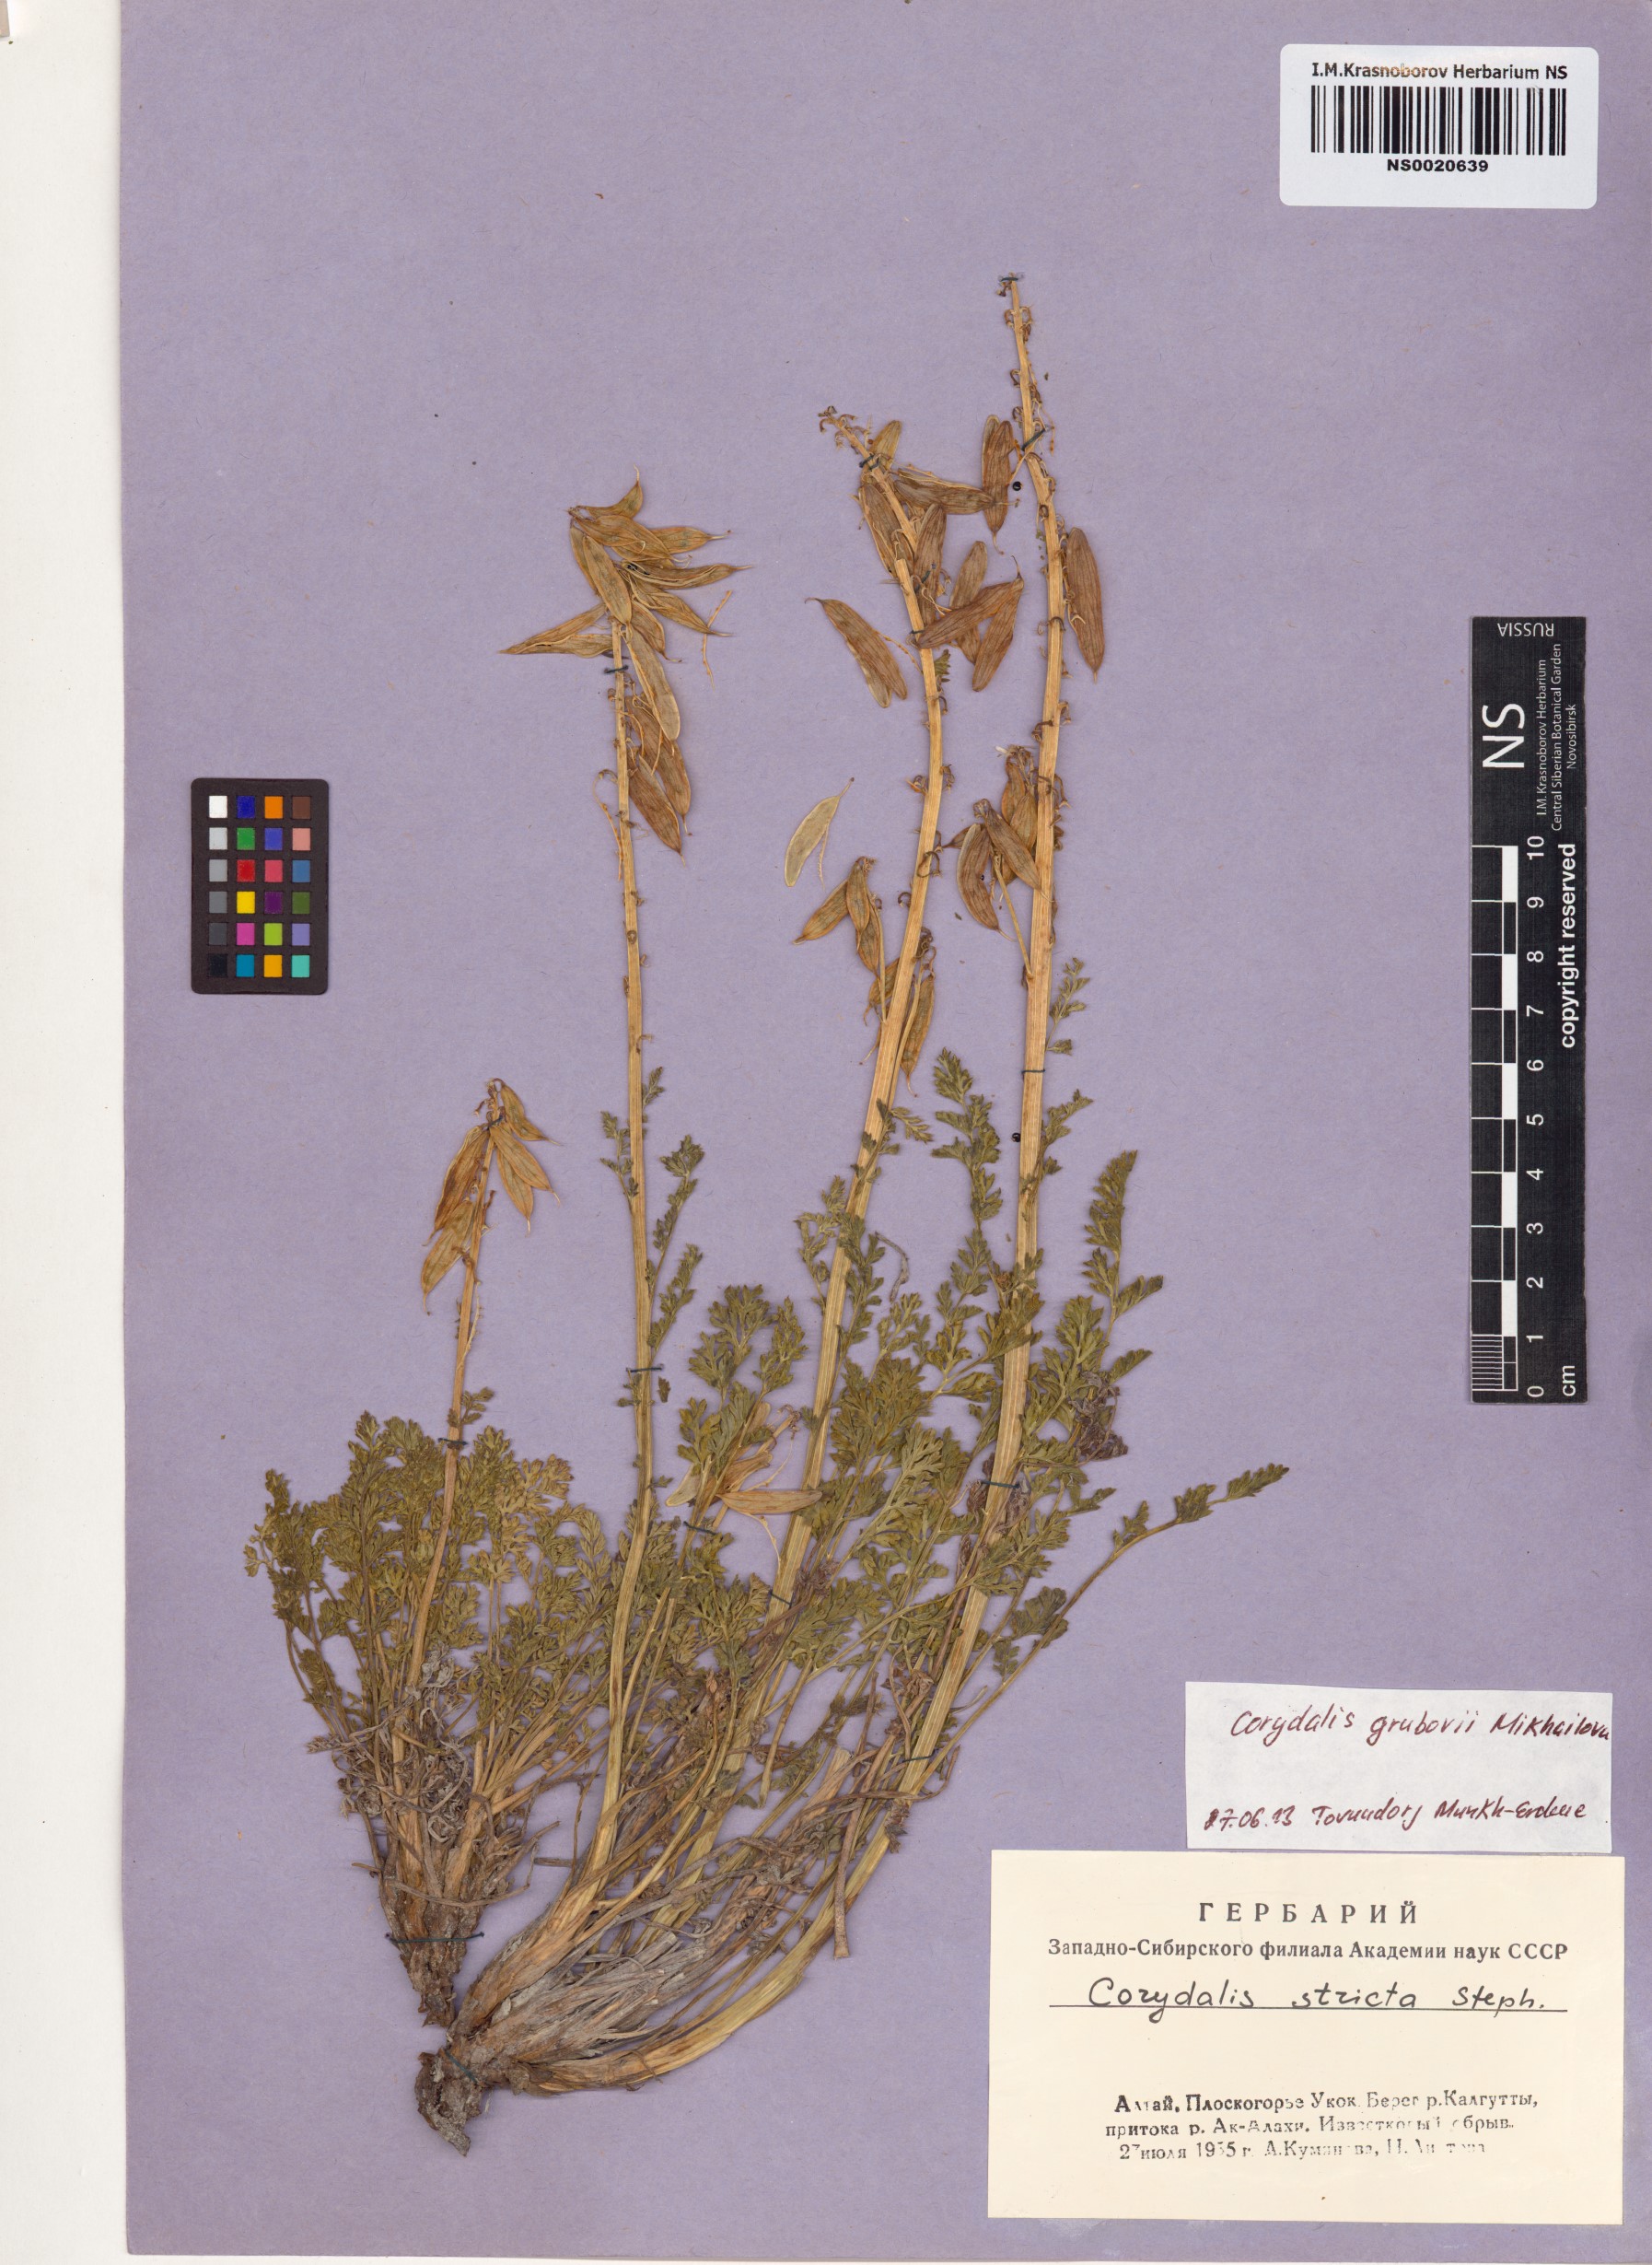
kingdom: Plantae
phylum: Tracheophyta
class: Magnoliopsida
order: Ranunculales
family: Papaveraceae
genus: Corydalis
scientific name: Corydalis stricta
